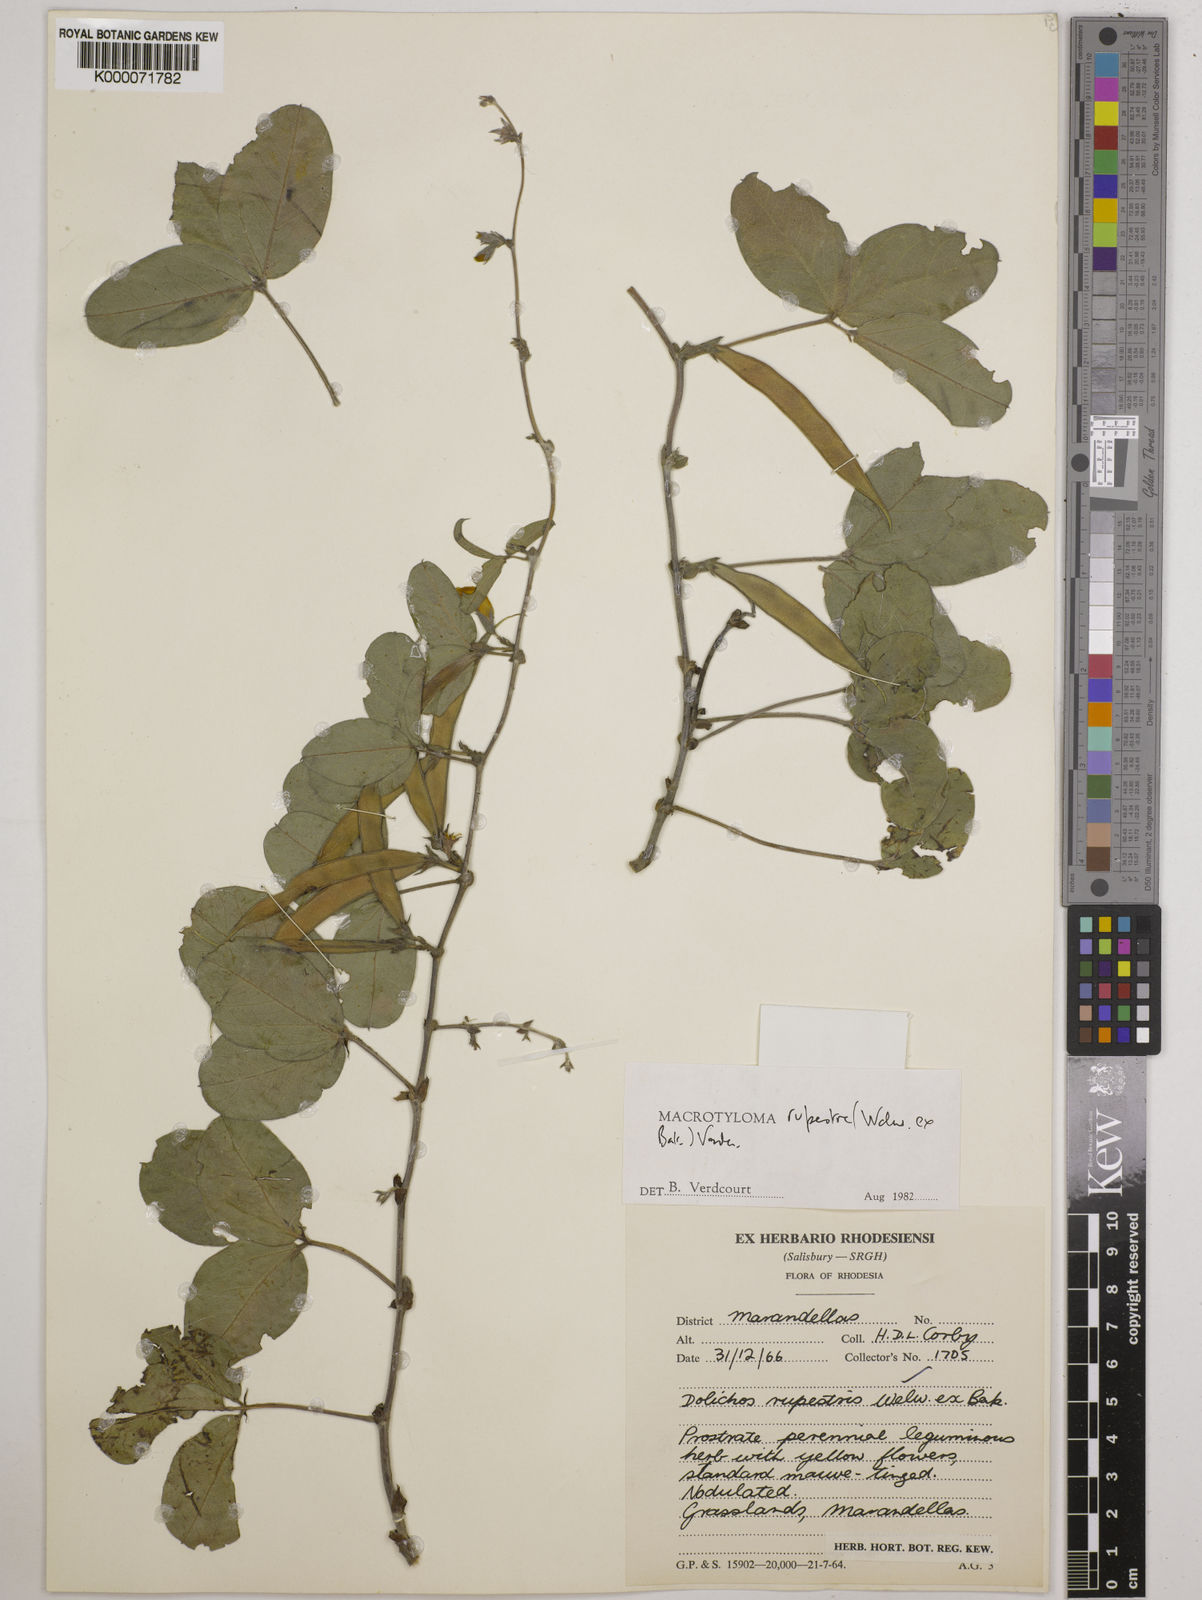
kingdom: Plantae
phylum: Tracheophyta
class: Magnoliopsida
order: Fabales
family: Fabaceae
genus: Macrotyloma
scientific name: Macrotyloma rupestre
